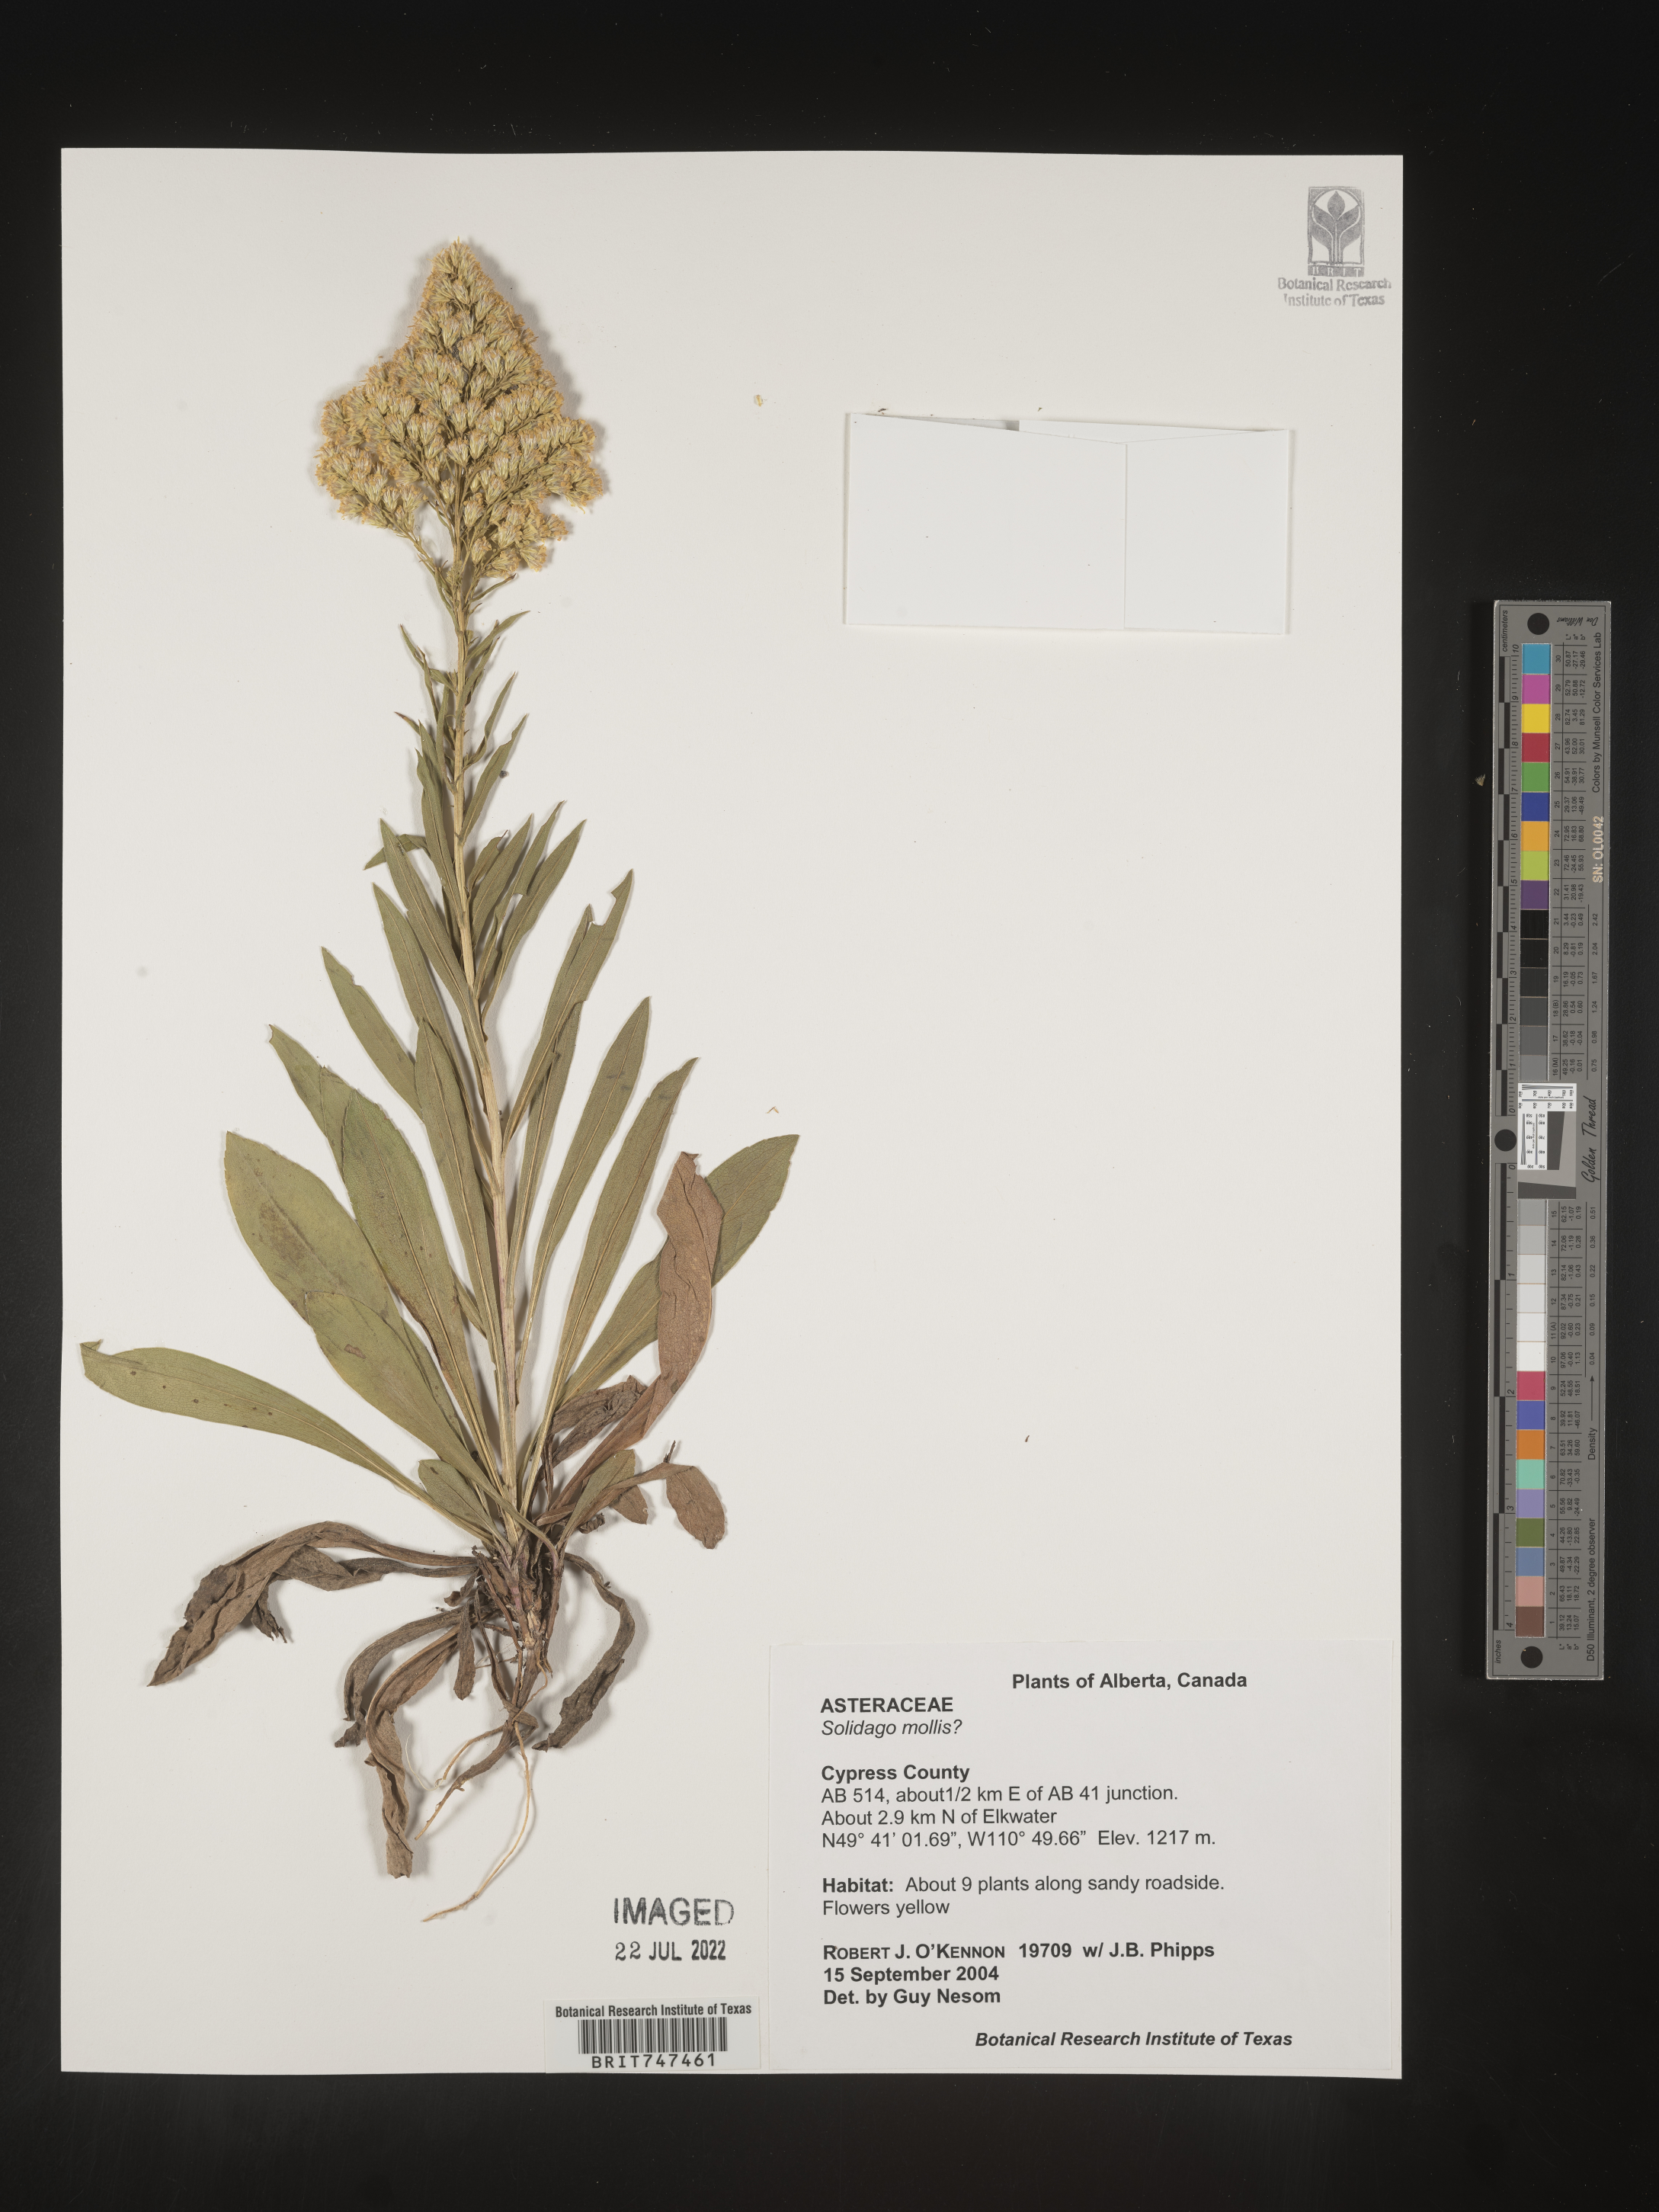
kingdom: Plantae
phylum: Tracheophyta
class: Magnoliopsida
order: Asterales
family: Asteraceae
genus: Solidago
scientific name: Solidago mollis
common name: Ashly goldenrod
